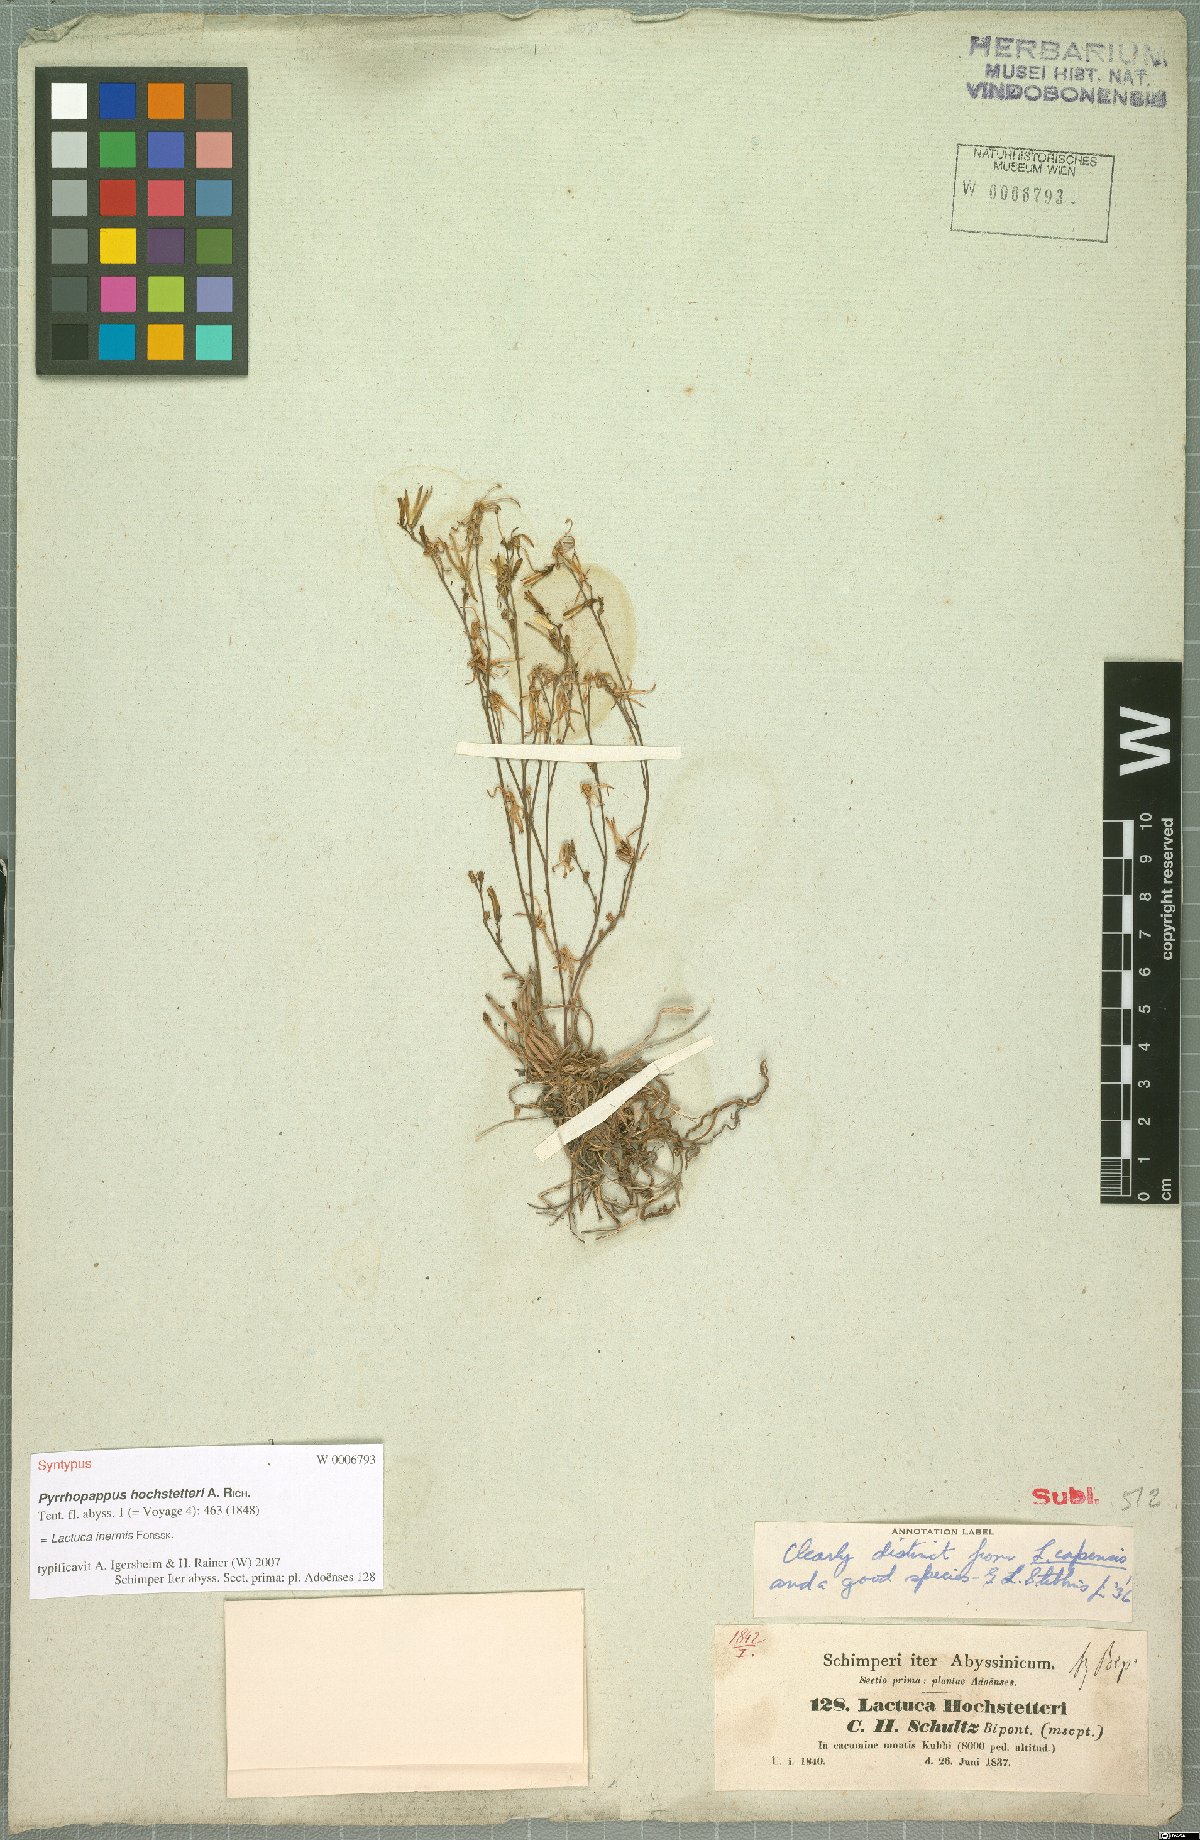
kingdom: Plantae
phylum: Tracheophyta
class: Magnoliopsida
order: Asterales
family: Asteraceae
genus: Lactuca
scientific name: Lactuca inermis
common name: Wild lettuce
